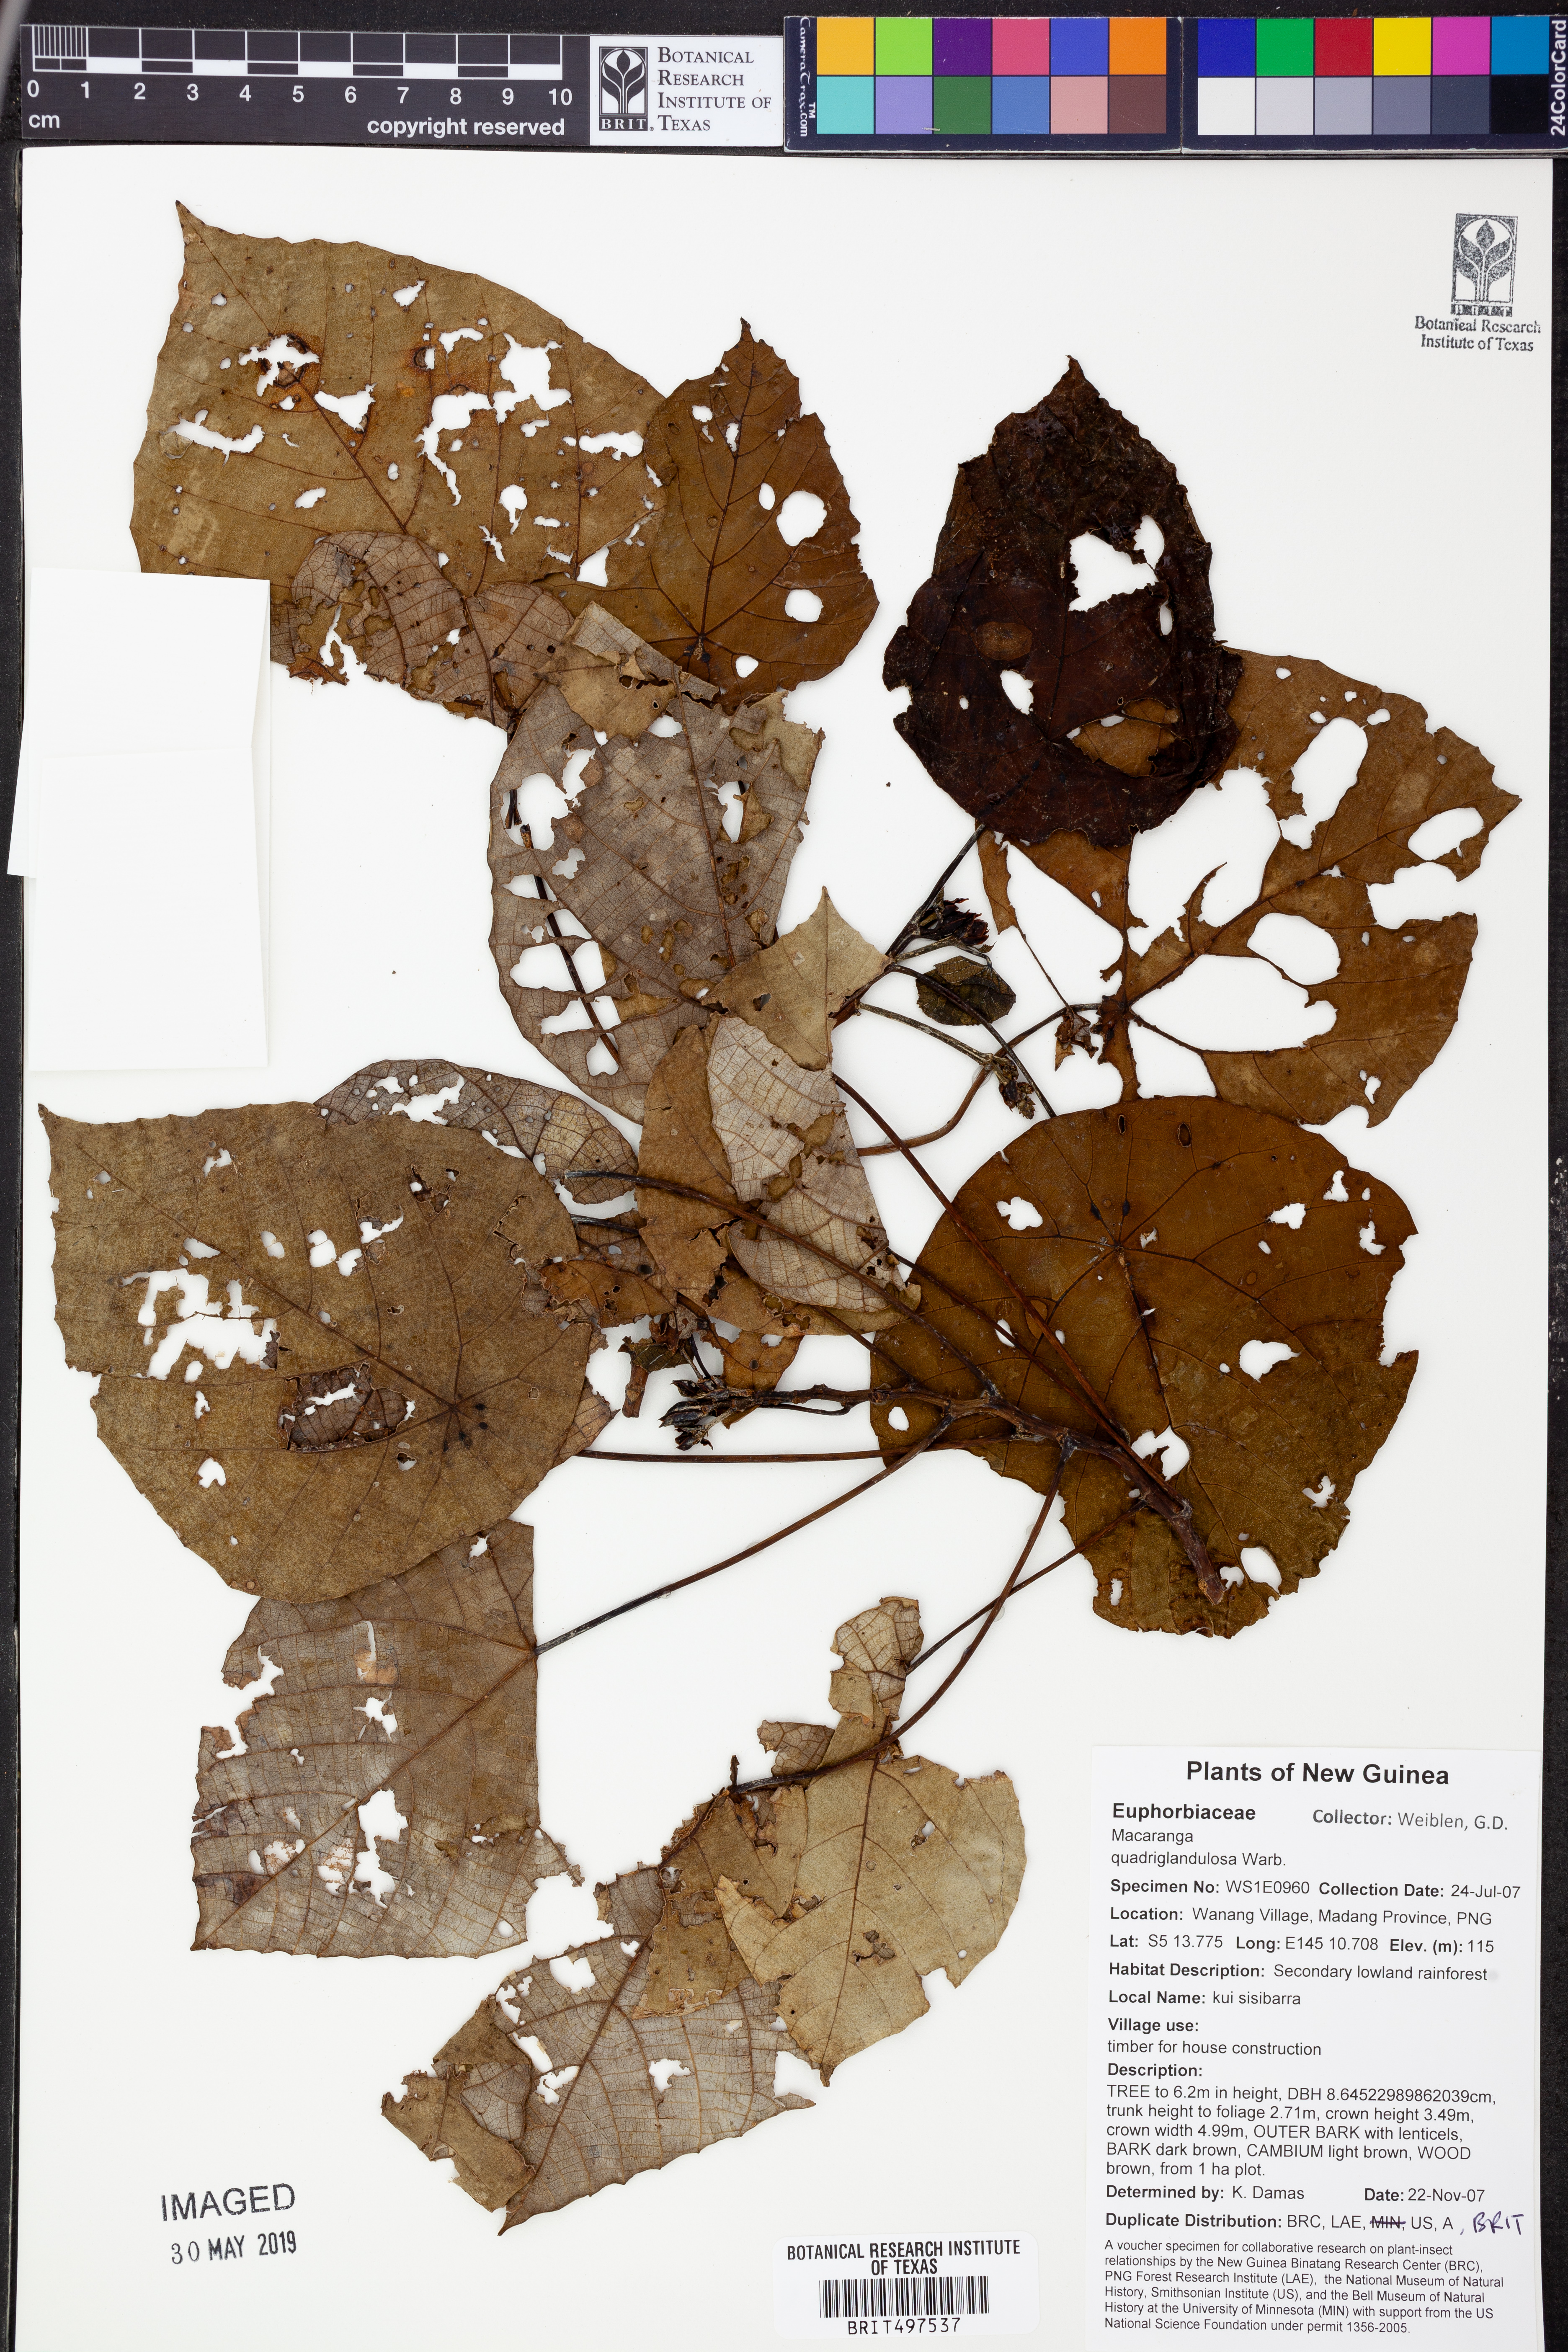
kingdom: Plantae
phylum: Tracheophyta
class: Magnoliopsida
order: Malpighiales
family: Euphorbiaceae
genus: Macaranga
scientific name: Macaranga quadriglandulosa
